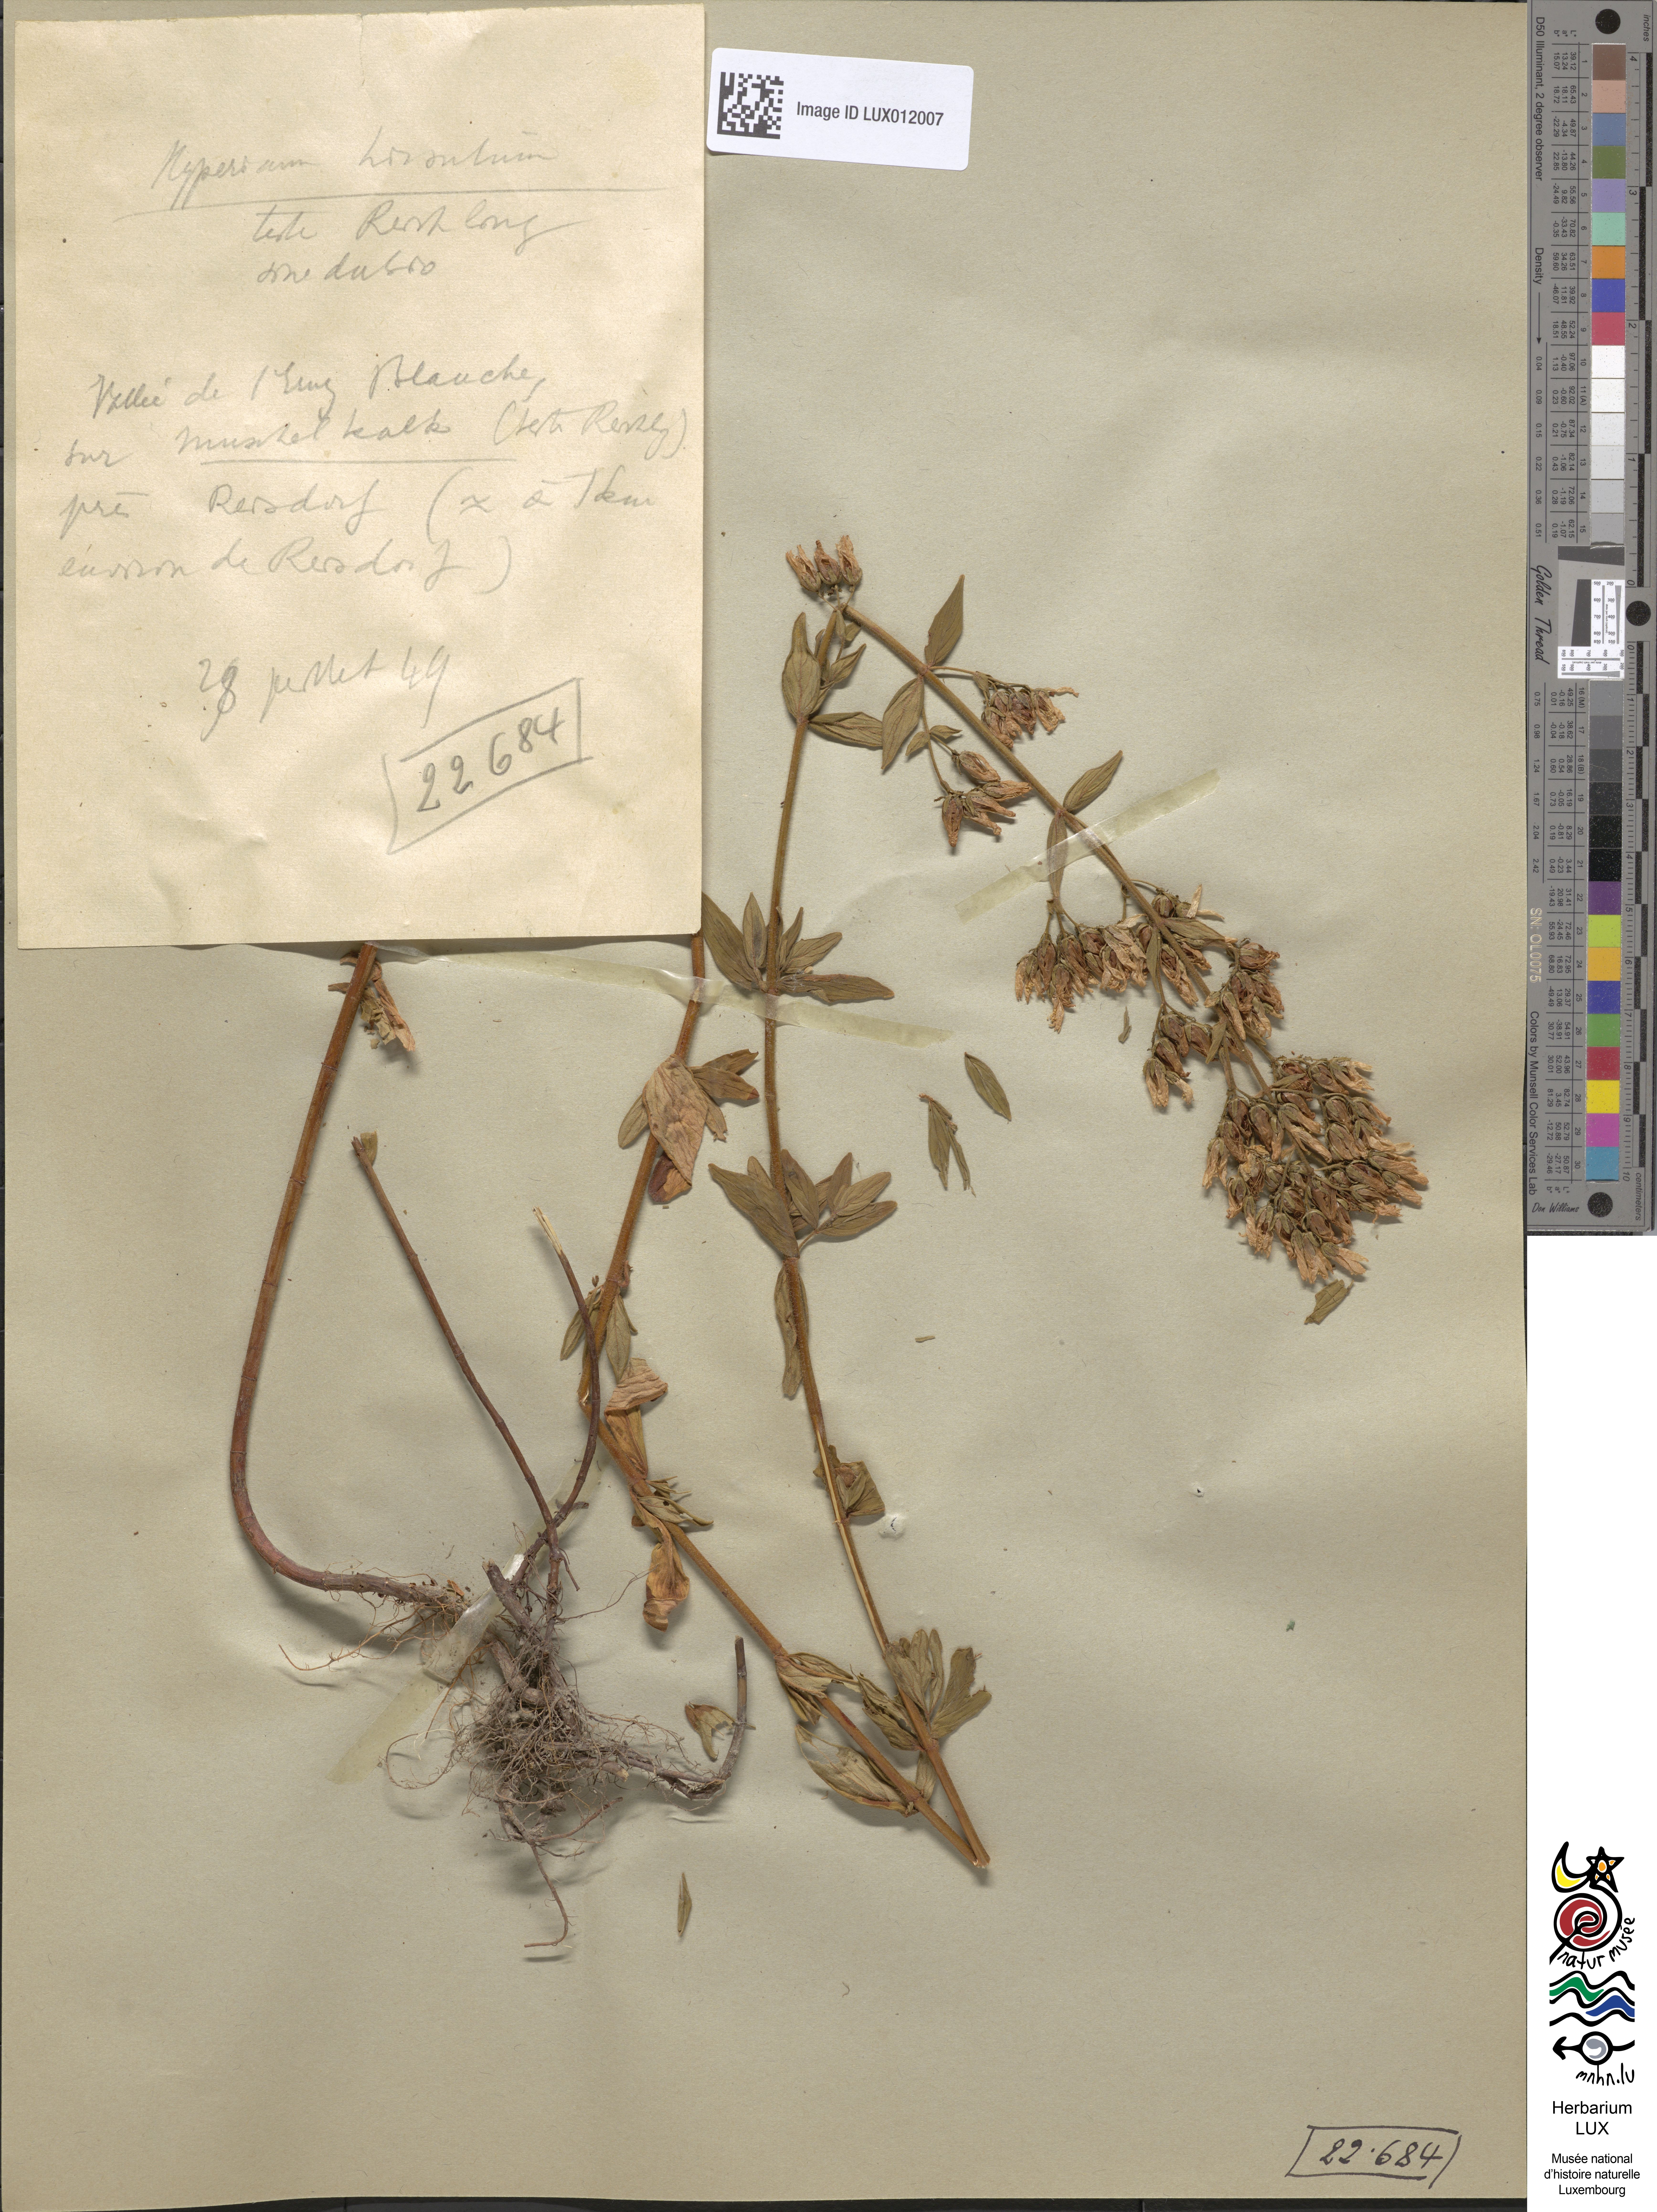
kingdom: Plantae
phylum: Tracheophyta
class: Magnoliopsida
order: Malpighiales
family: Hypericaceae
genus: Hypericum
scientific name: Hypericum hirsutum
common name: Hairy st. john's-wort
